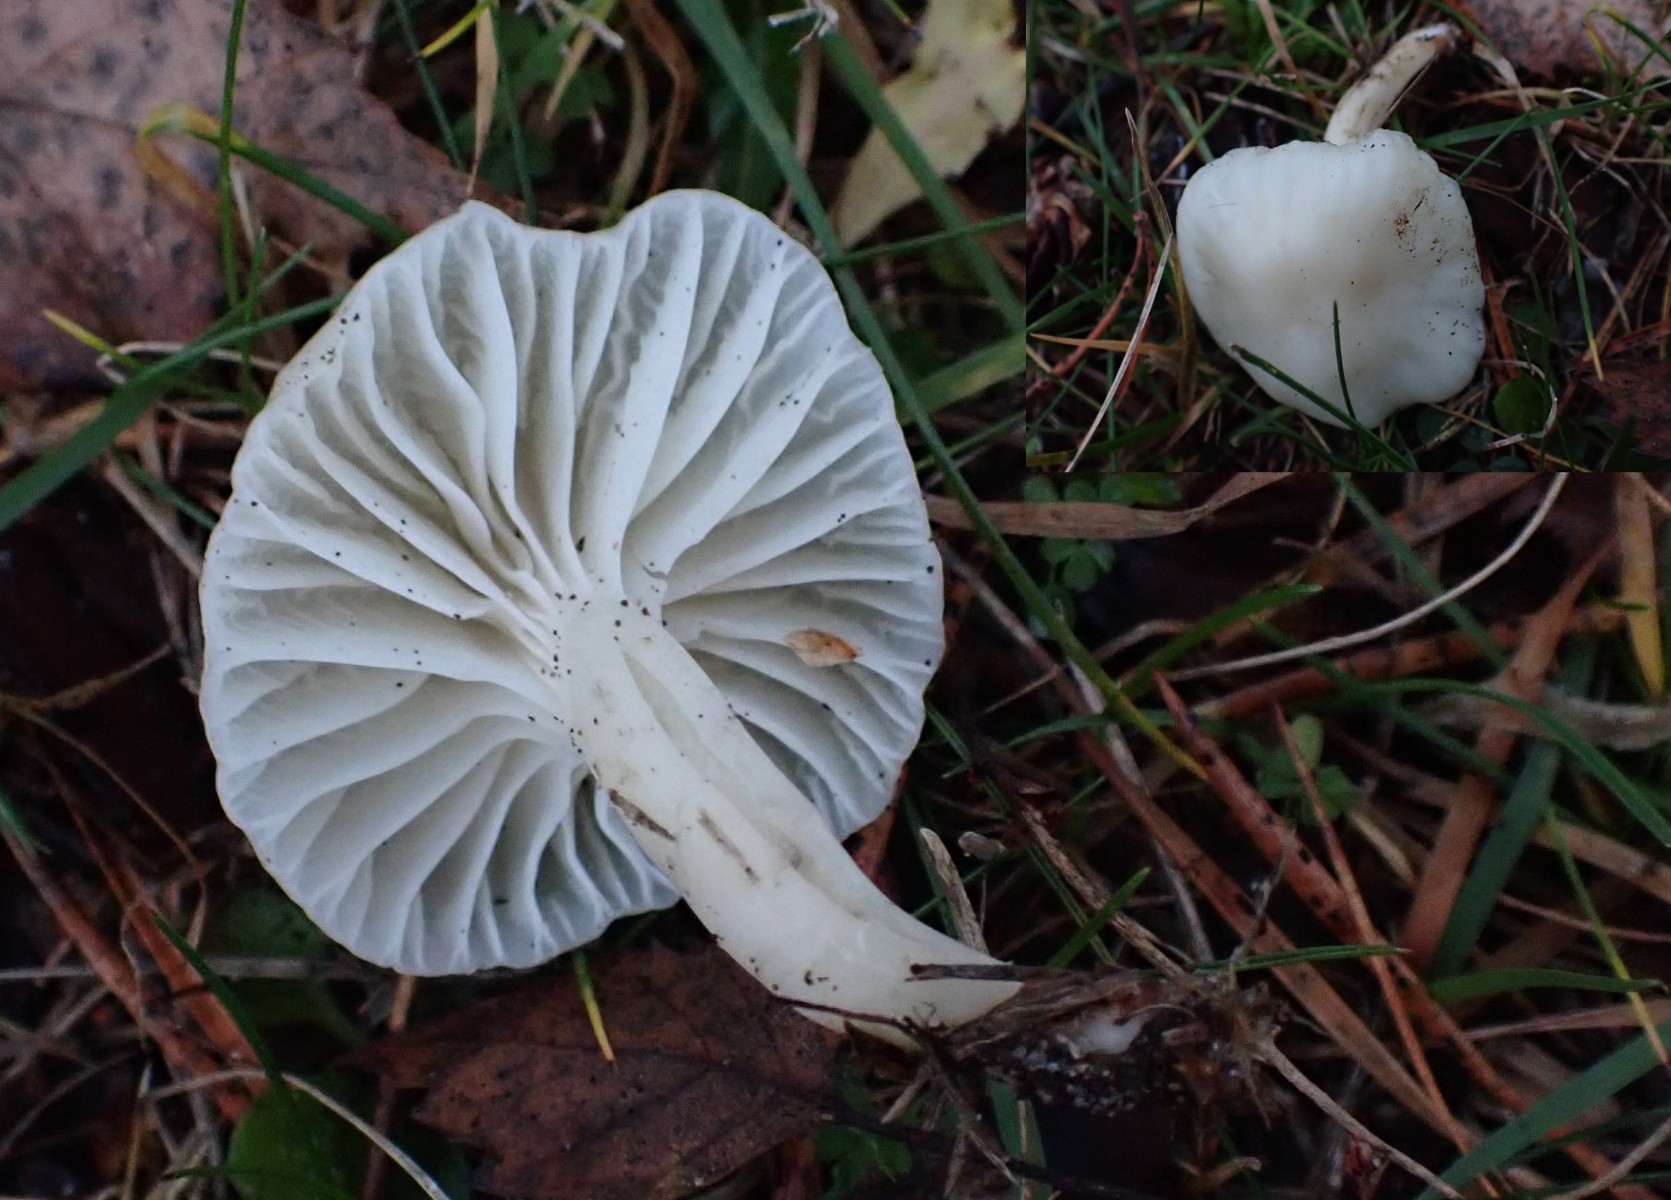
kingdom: Fungi
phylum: Basidiomycota
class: Agaricomycetes
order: Agaricales
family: Hygrophoraceae
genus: Cuphophyllus
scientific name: Cuphophyllus virgineus
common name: snehvid vokshat
